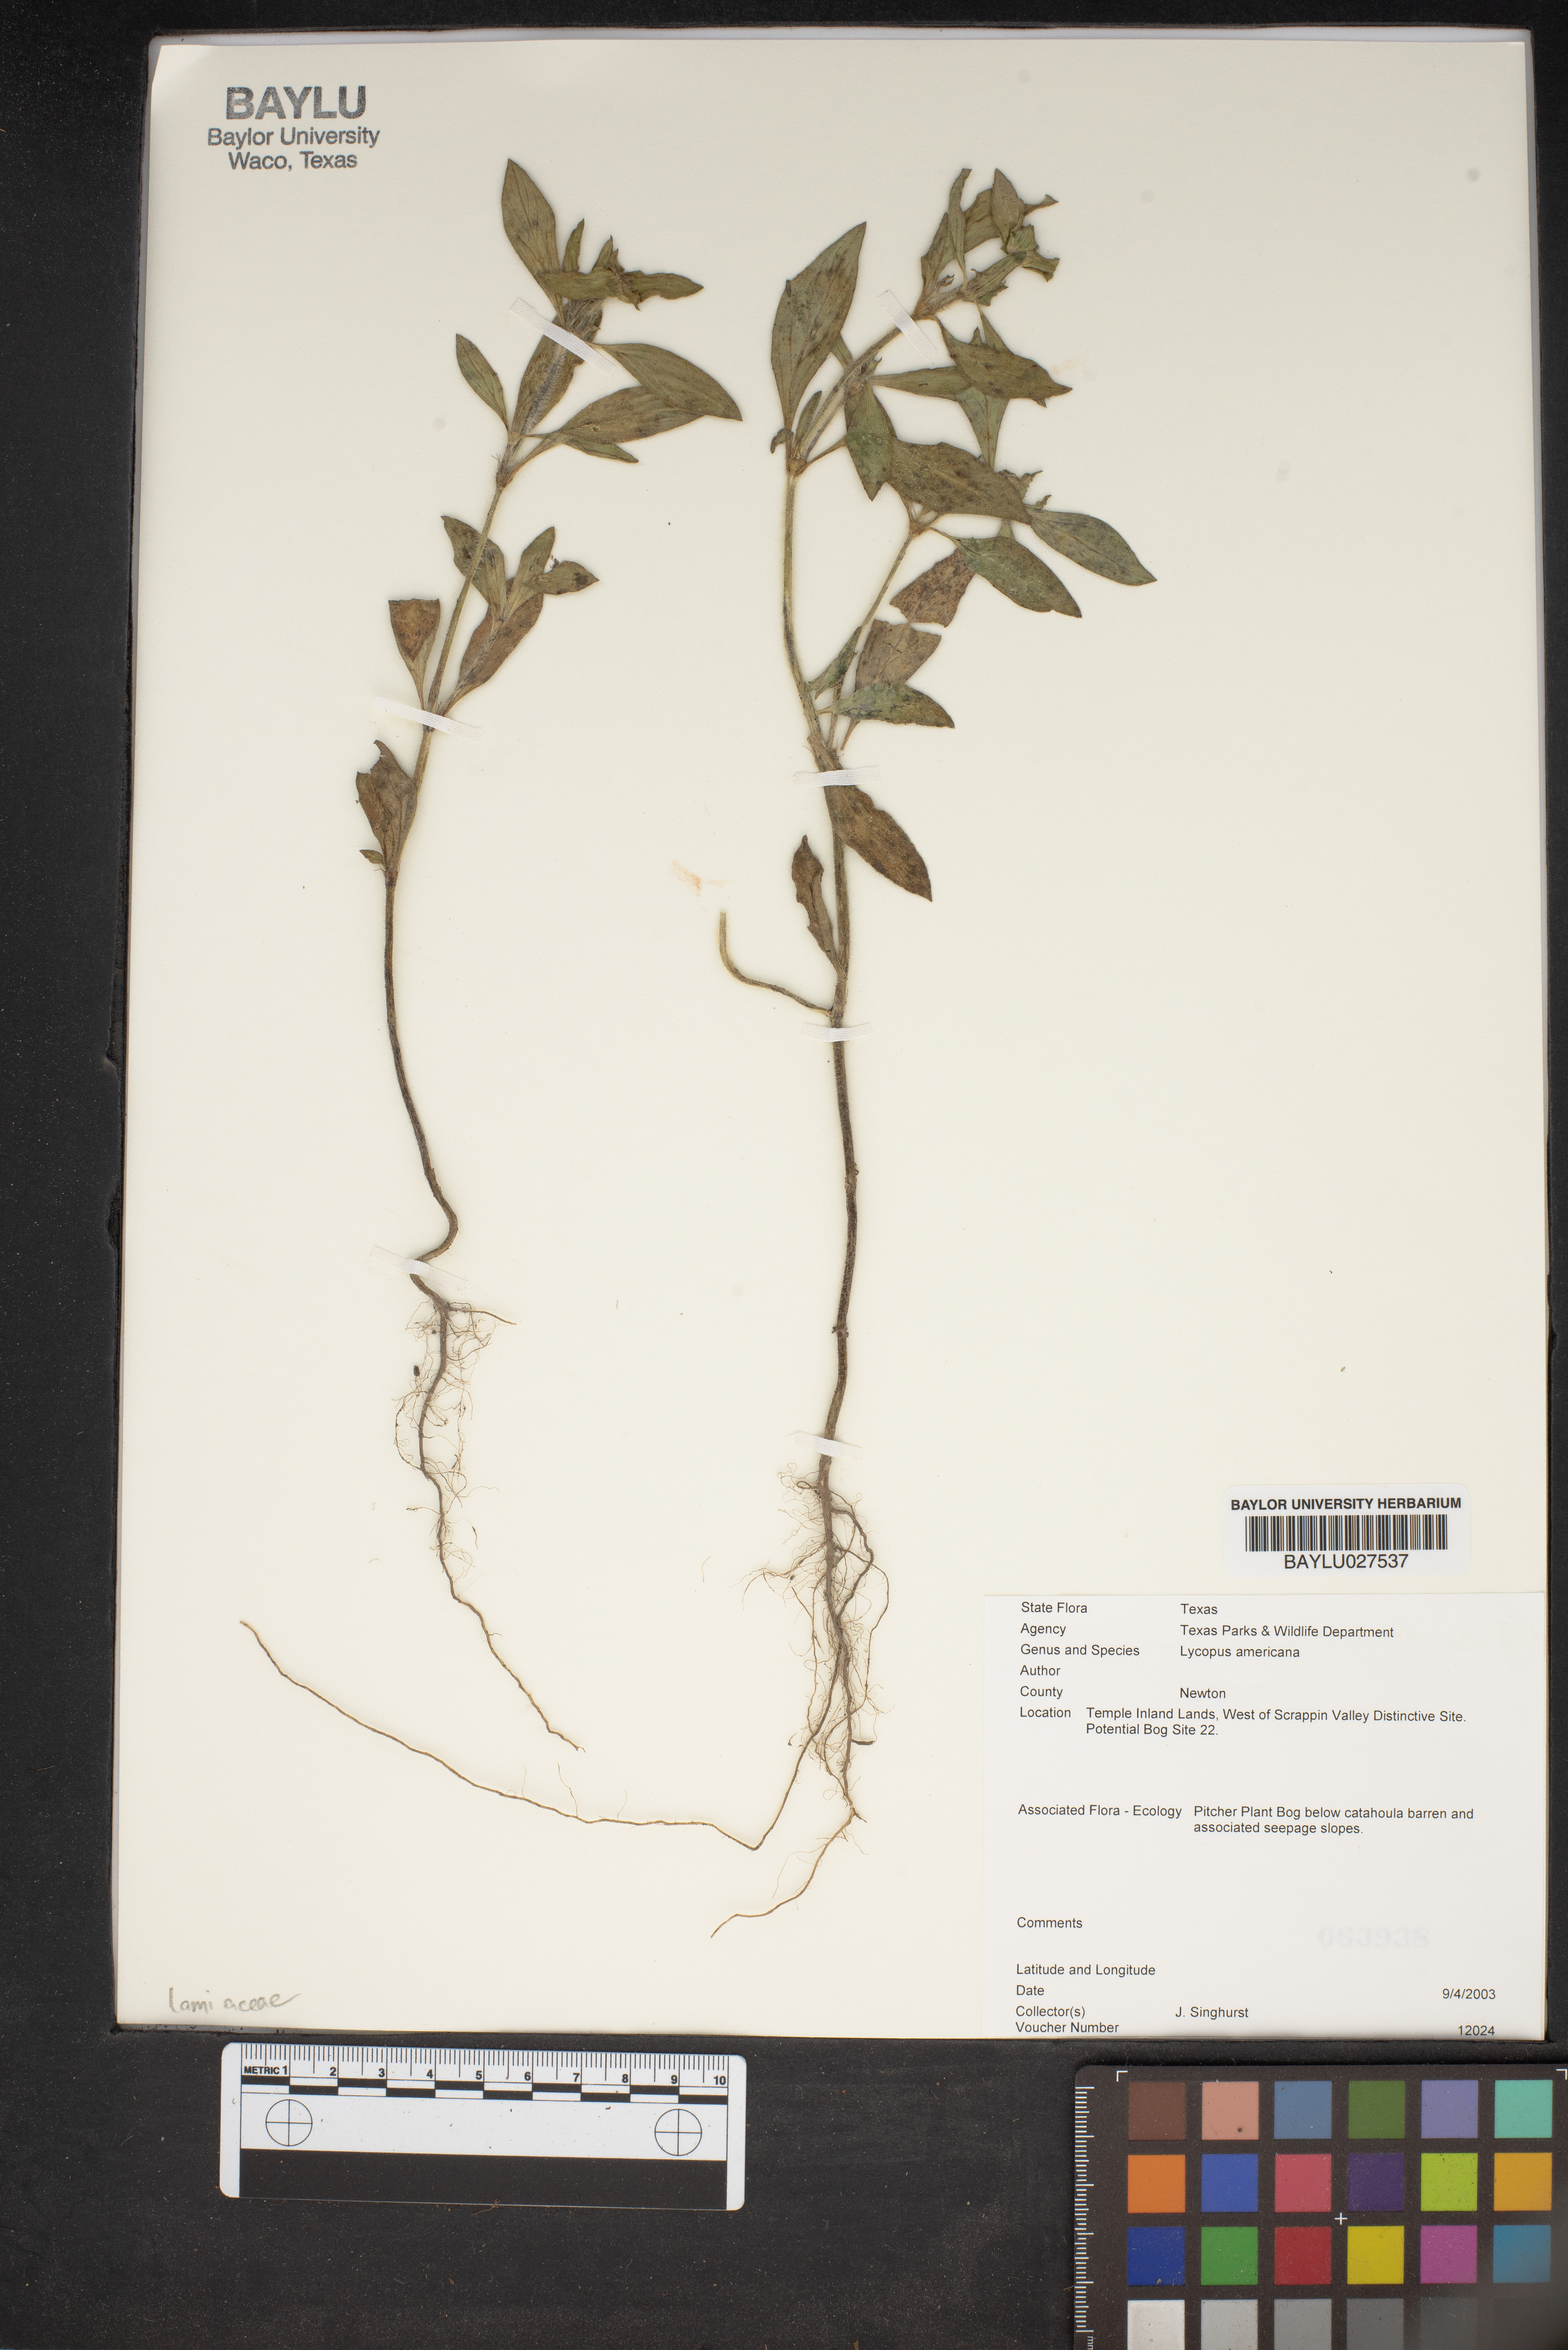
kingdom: Plantae
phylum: Tracheophyta
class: Magnoliopsida
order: Lamiales
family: Lamiaceae
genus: Lycopus
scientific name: Lycopus americanus
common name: American bugleweed
